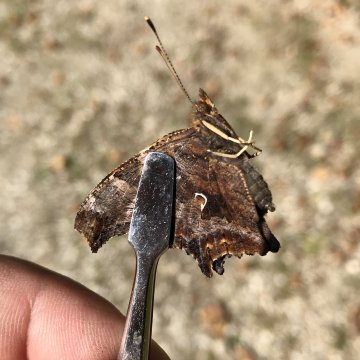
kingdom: Animalia
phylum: Arthropoda
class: Insecta
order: Lepidoptera
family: Nymphalidae
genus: Polygonia
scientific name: Polygonia comma
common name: Eastern Comma
